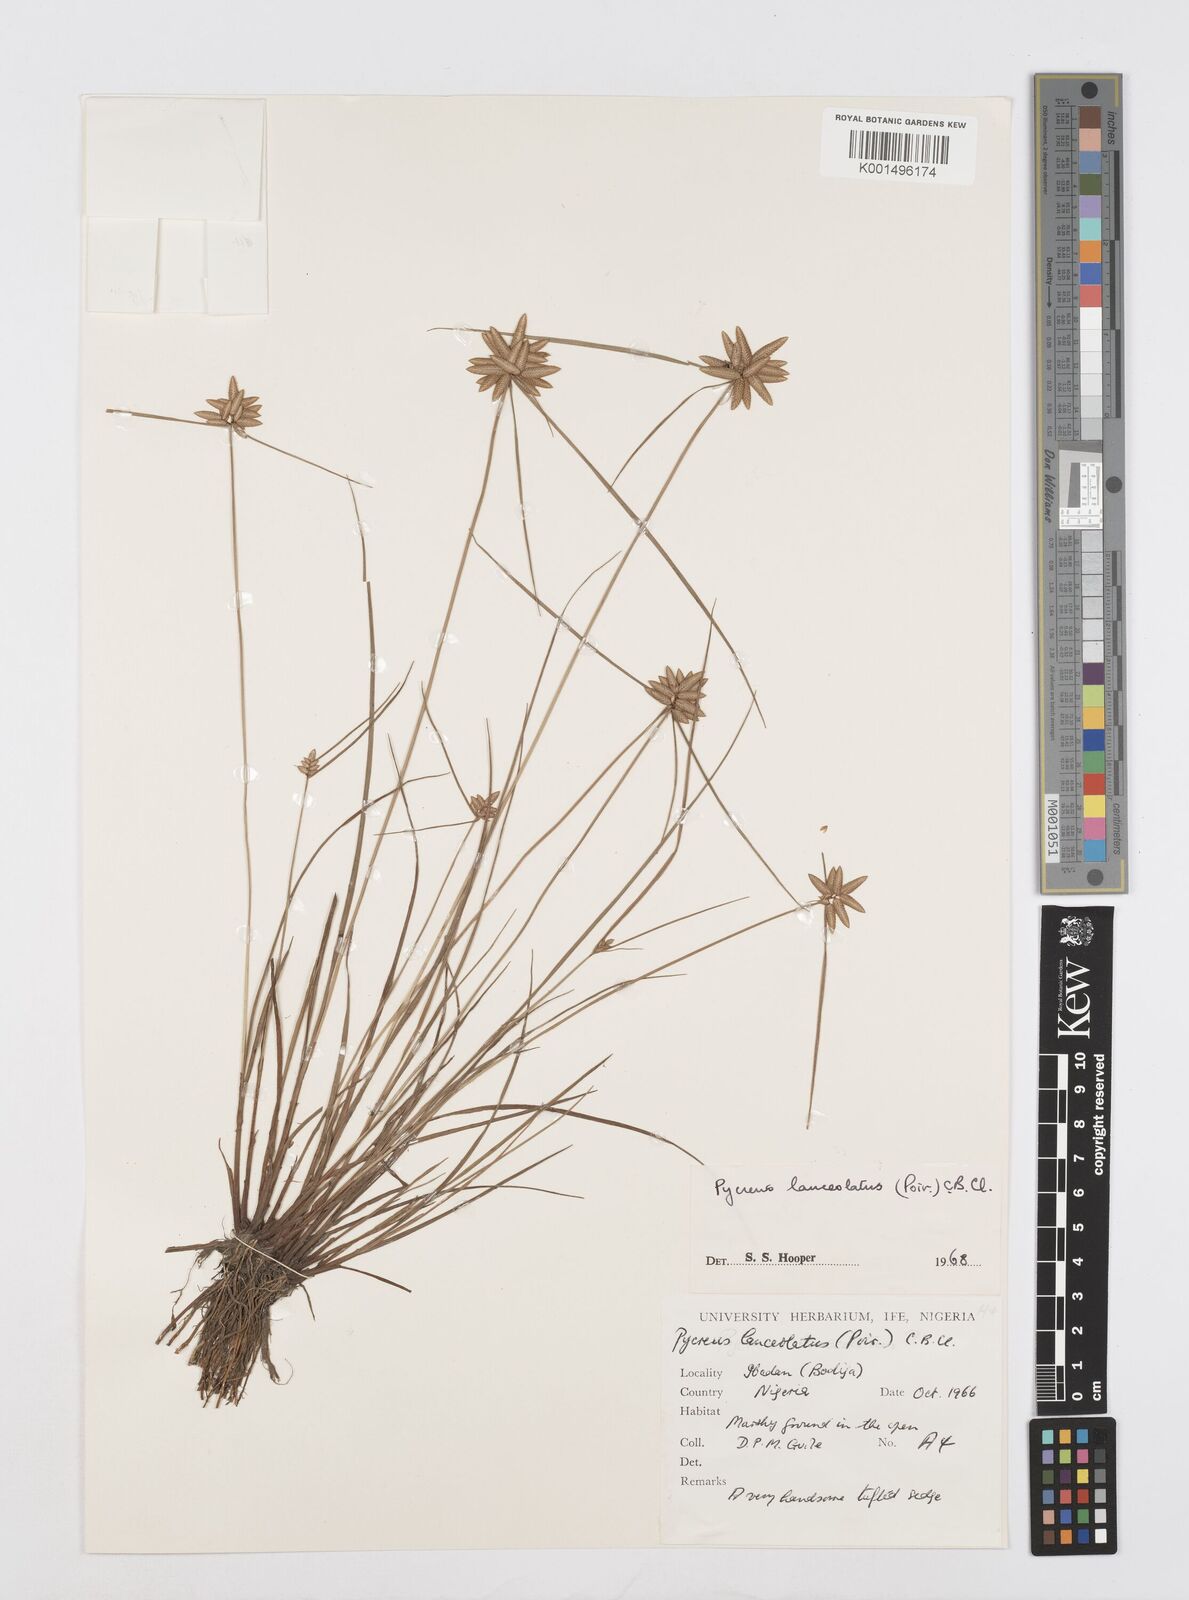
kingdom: Plantae
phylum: Tracheophyta
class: Liliopsida
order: Poales
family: Cyperaceae
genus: Cyperus
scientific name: Cyperus
